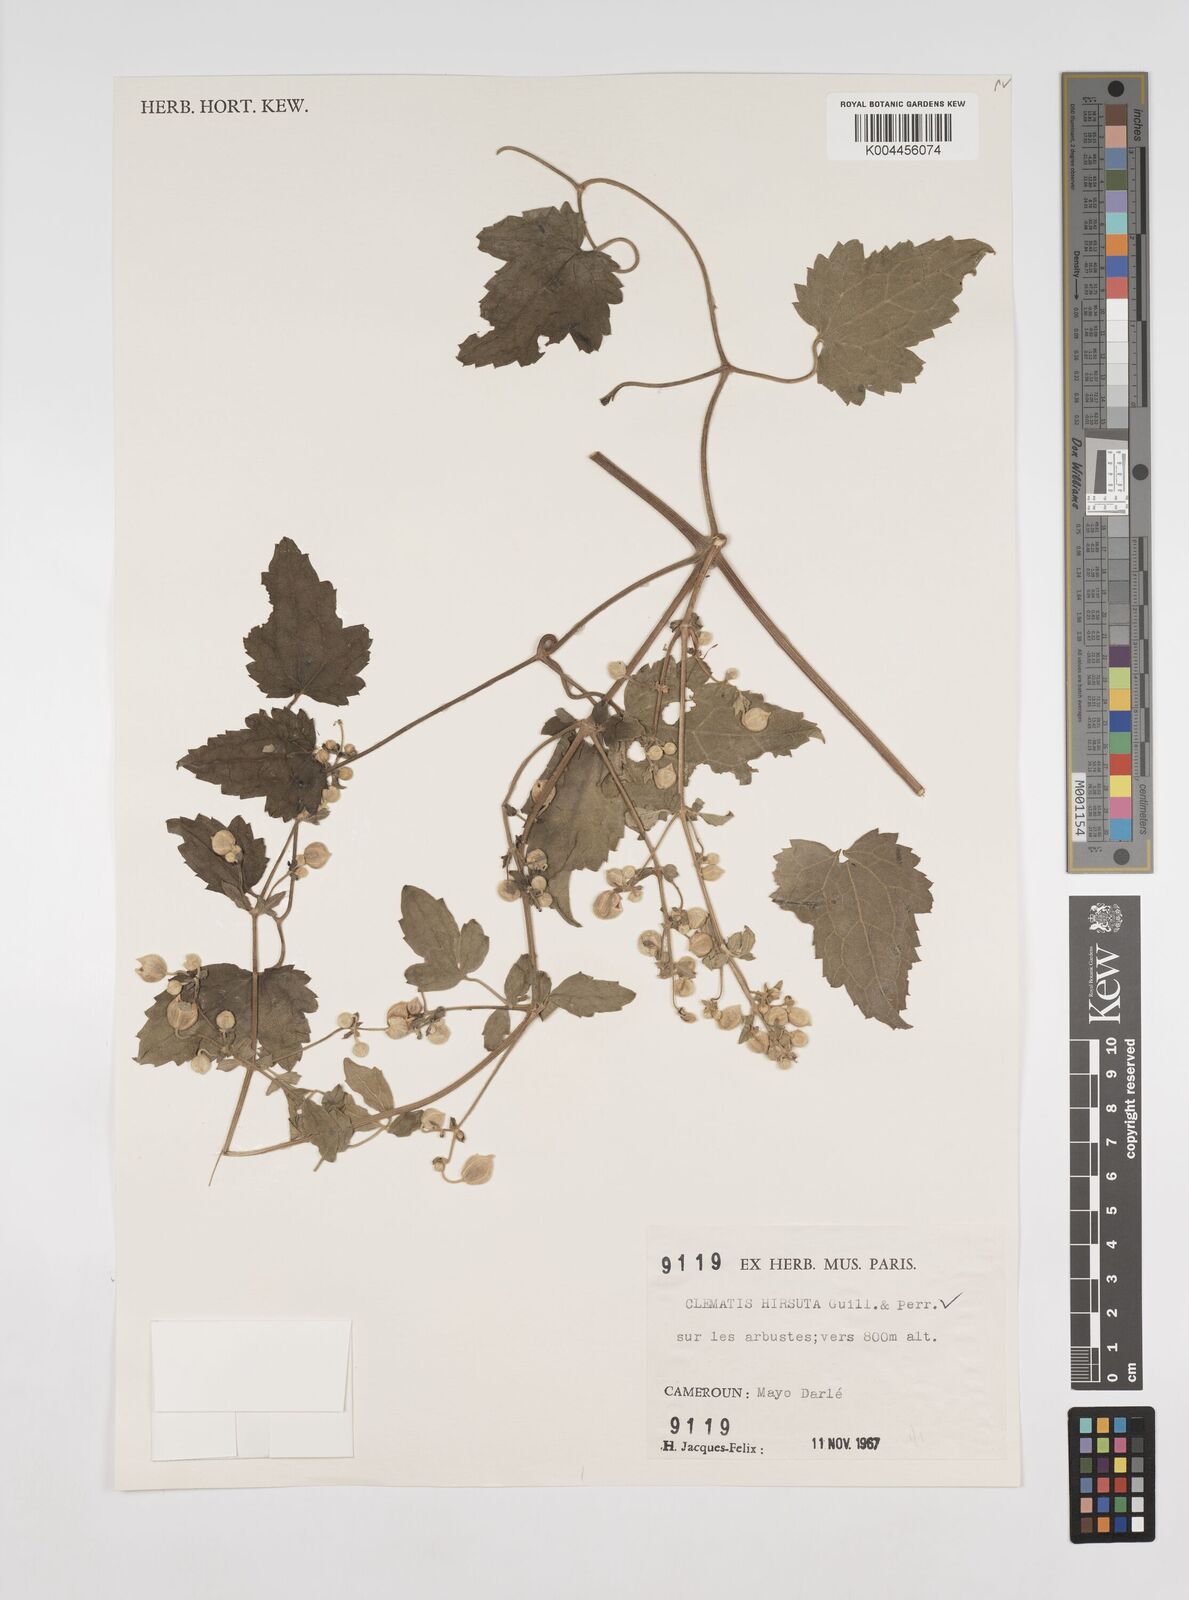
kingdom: Plantae
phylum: Tracheophyta
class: Magnoliopsida
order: Ranunculales
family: Ranunculaceae
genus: Clematis
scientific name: Clematis hirsuta
